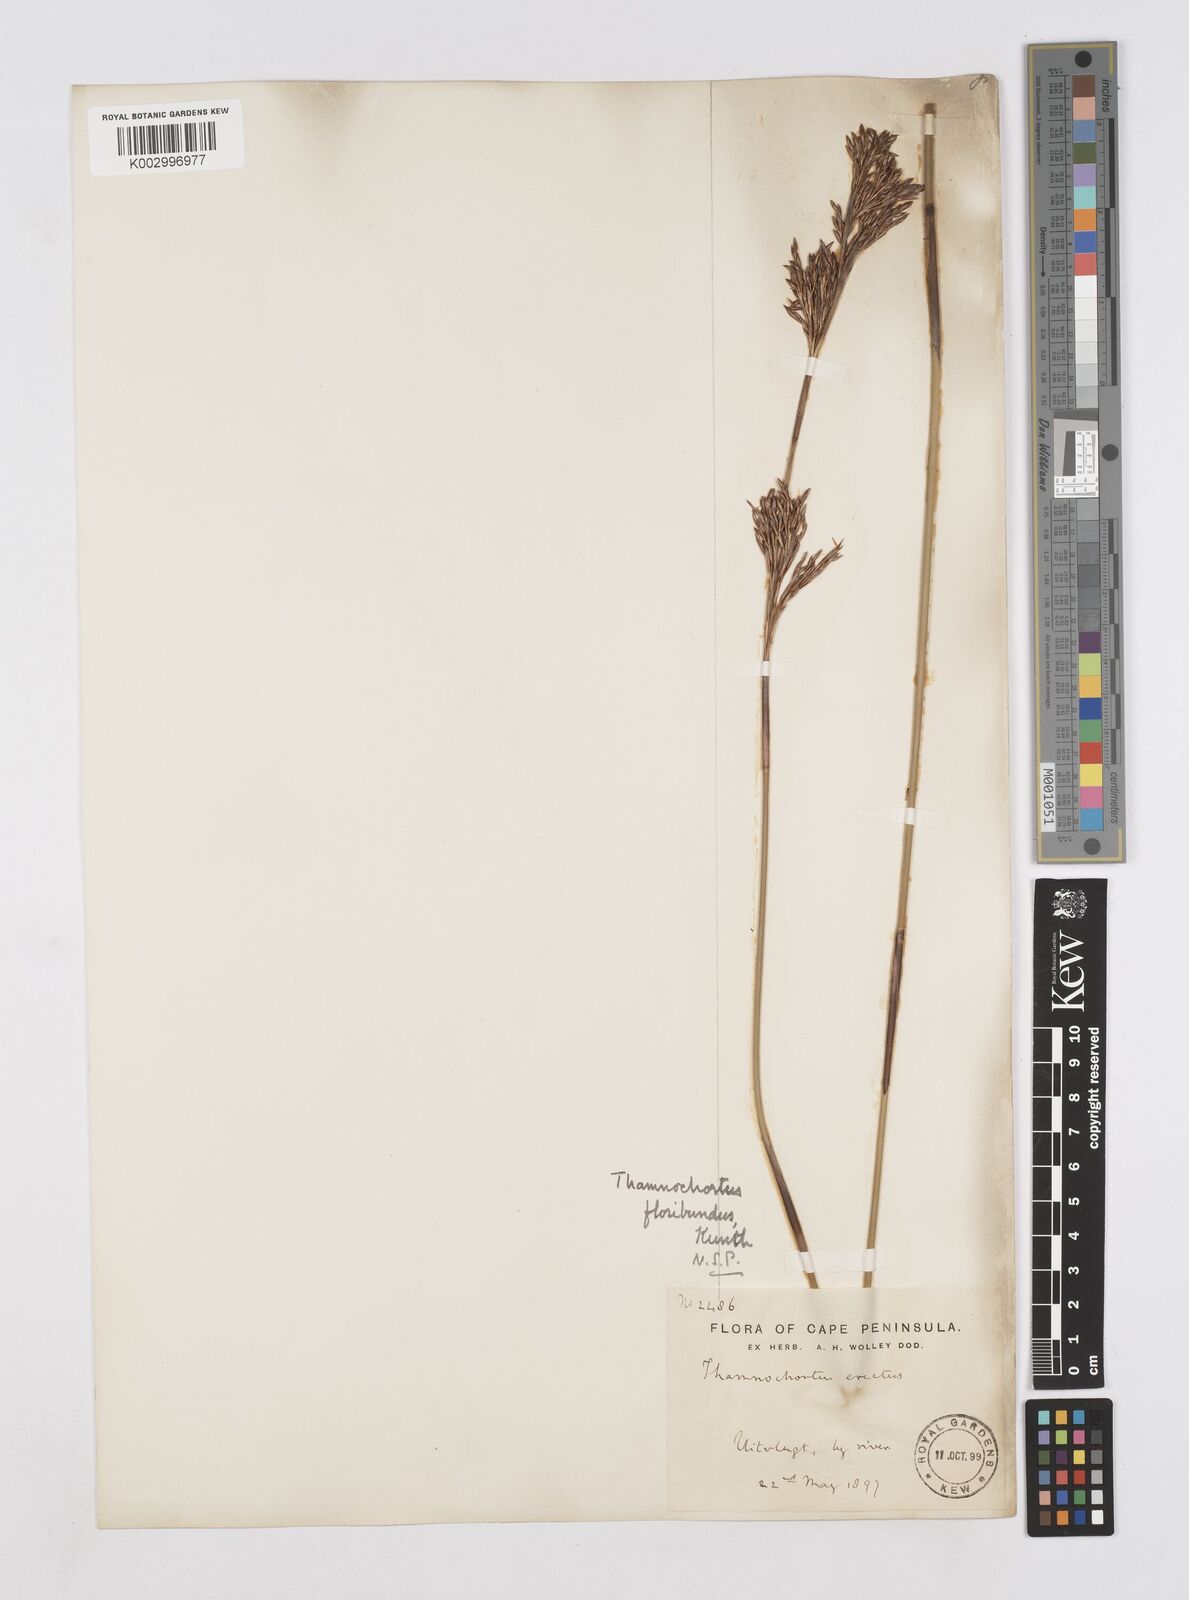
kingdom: Plantae
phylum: Tracheophyta
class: Liliopsida
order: Poales
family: Restionaceae
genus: Thamnochortus
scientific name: Thamnochortus erectus
